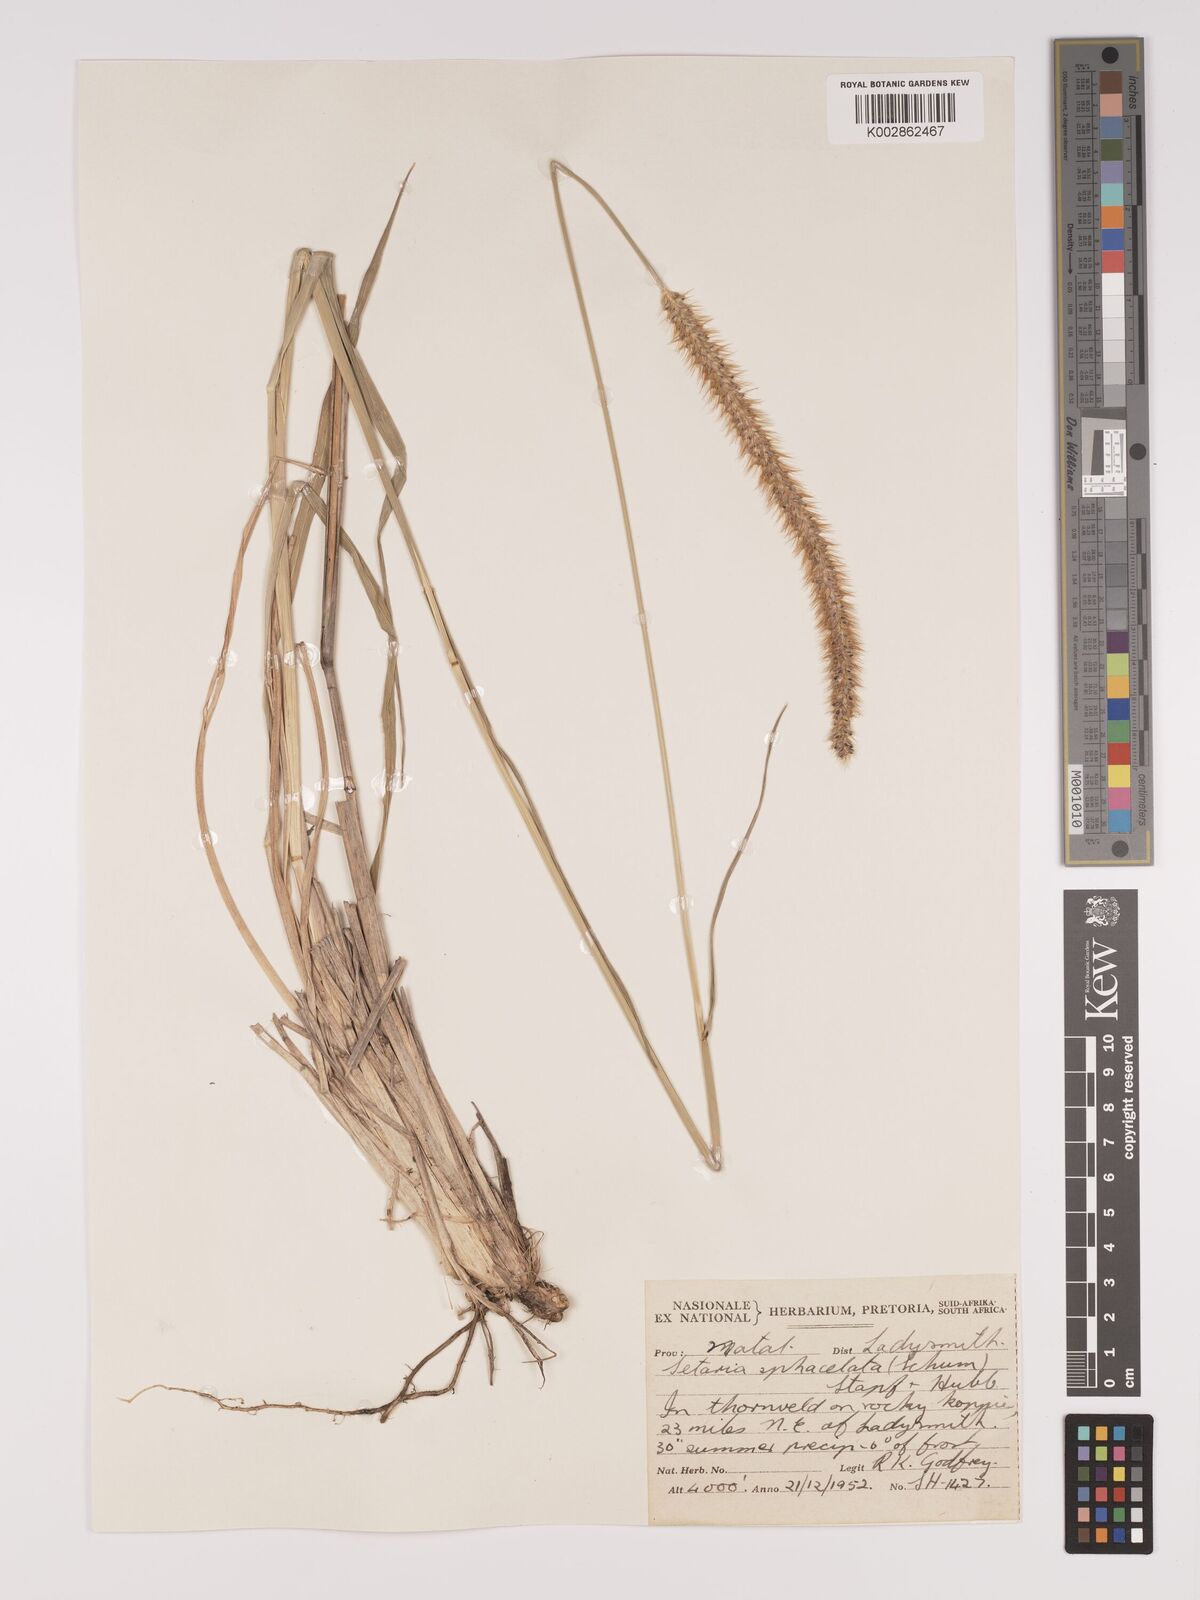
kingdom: Plantae
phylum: Tracheophyta
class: Liliopsida
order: Poales
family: Poaceae
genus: Setaria
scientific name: Setaria sphacelata
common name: African bristlegrass
